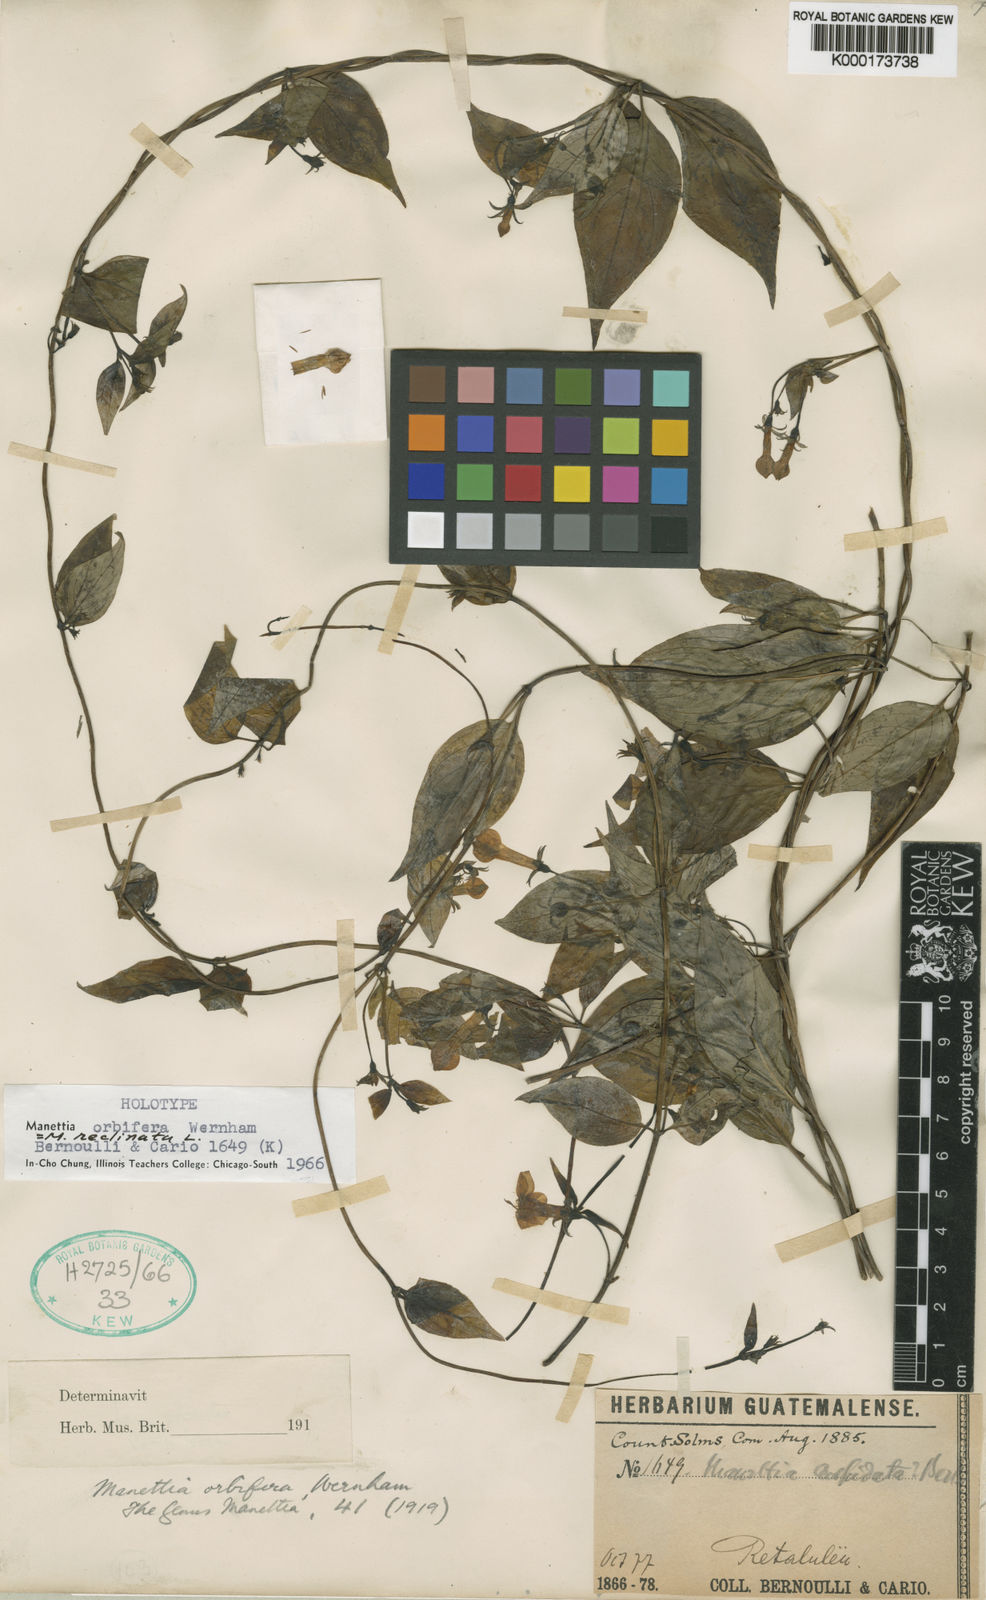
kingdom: Plantae
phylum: Tracheophyta
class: Magnoliopsida
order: Gentianales
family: Rubiaceae
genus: Manettia
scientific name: Manettia reclinata
